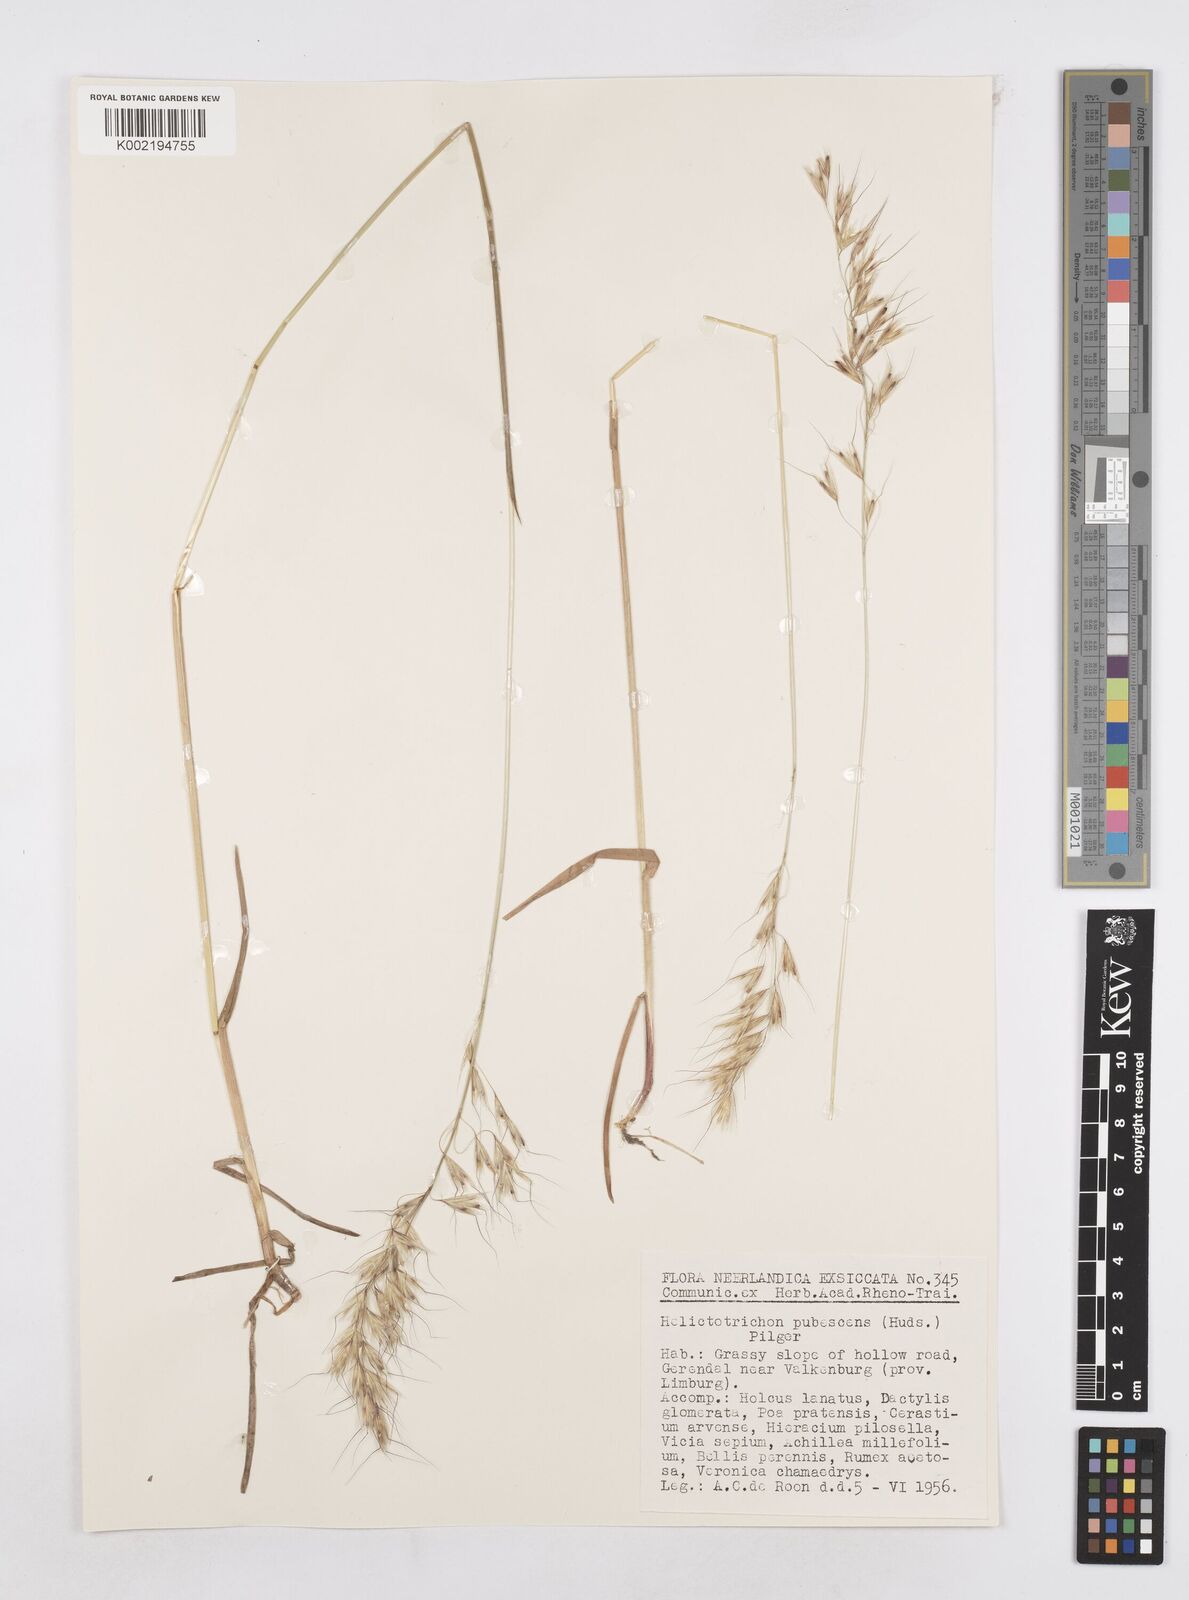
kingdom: Plantae
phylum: Tracheophyta
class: Liliopsida
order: Poales
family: Poaceae
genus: Avenula
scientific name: Avenula pubescens
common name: Downy alpine oatgrass
